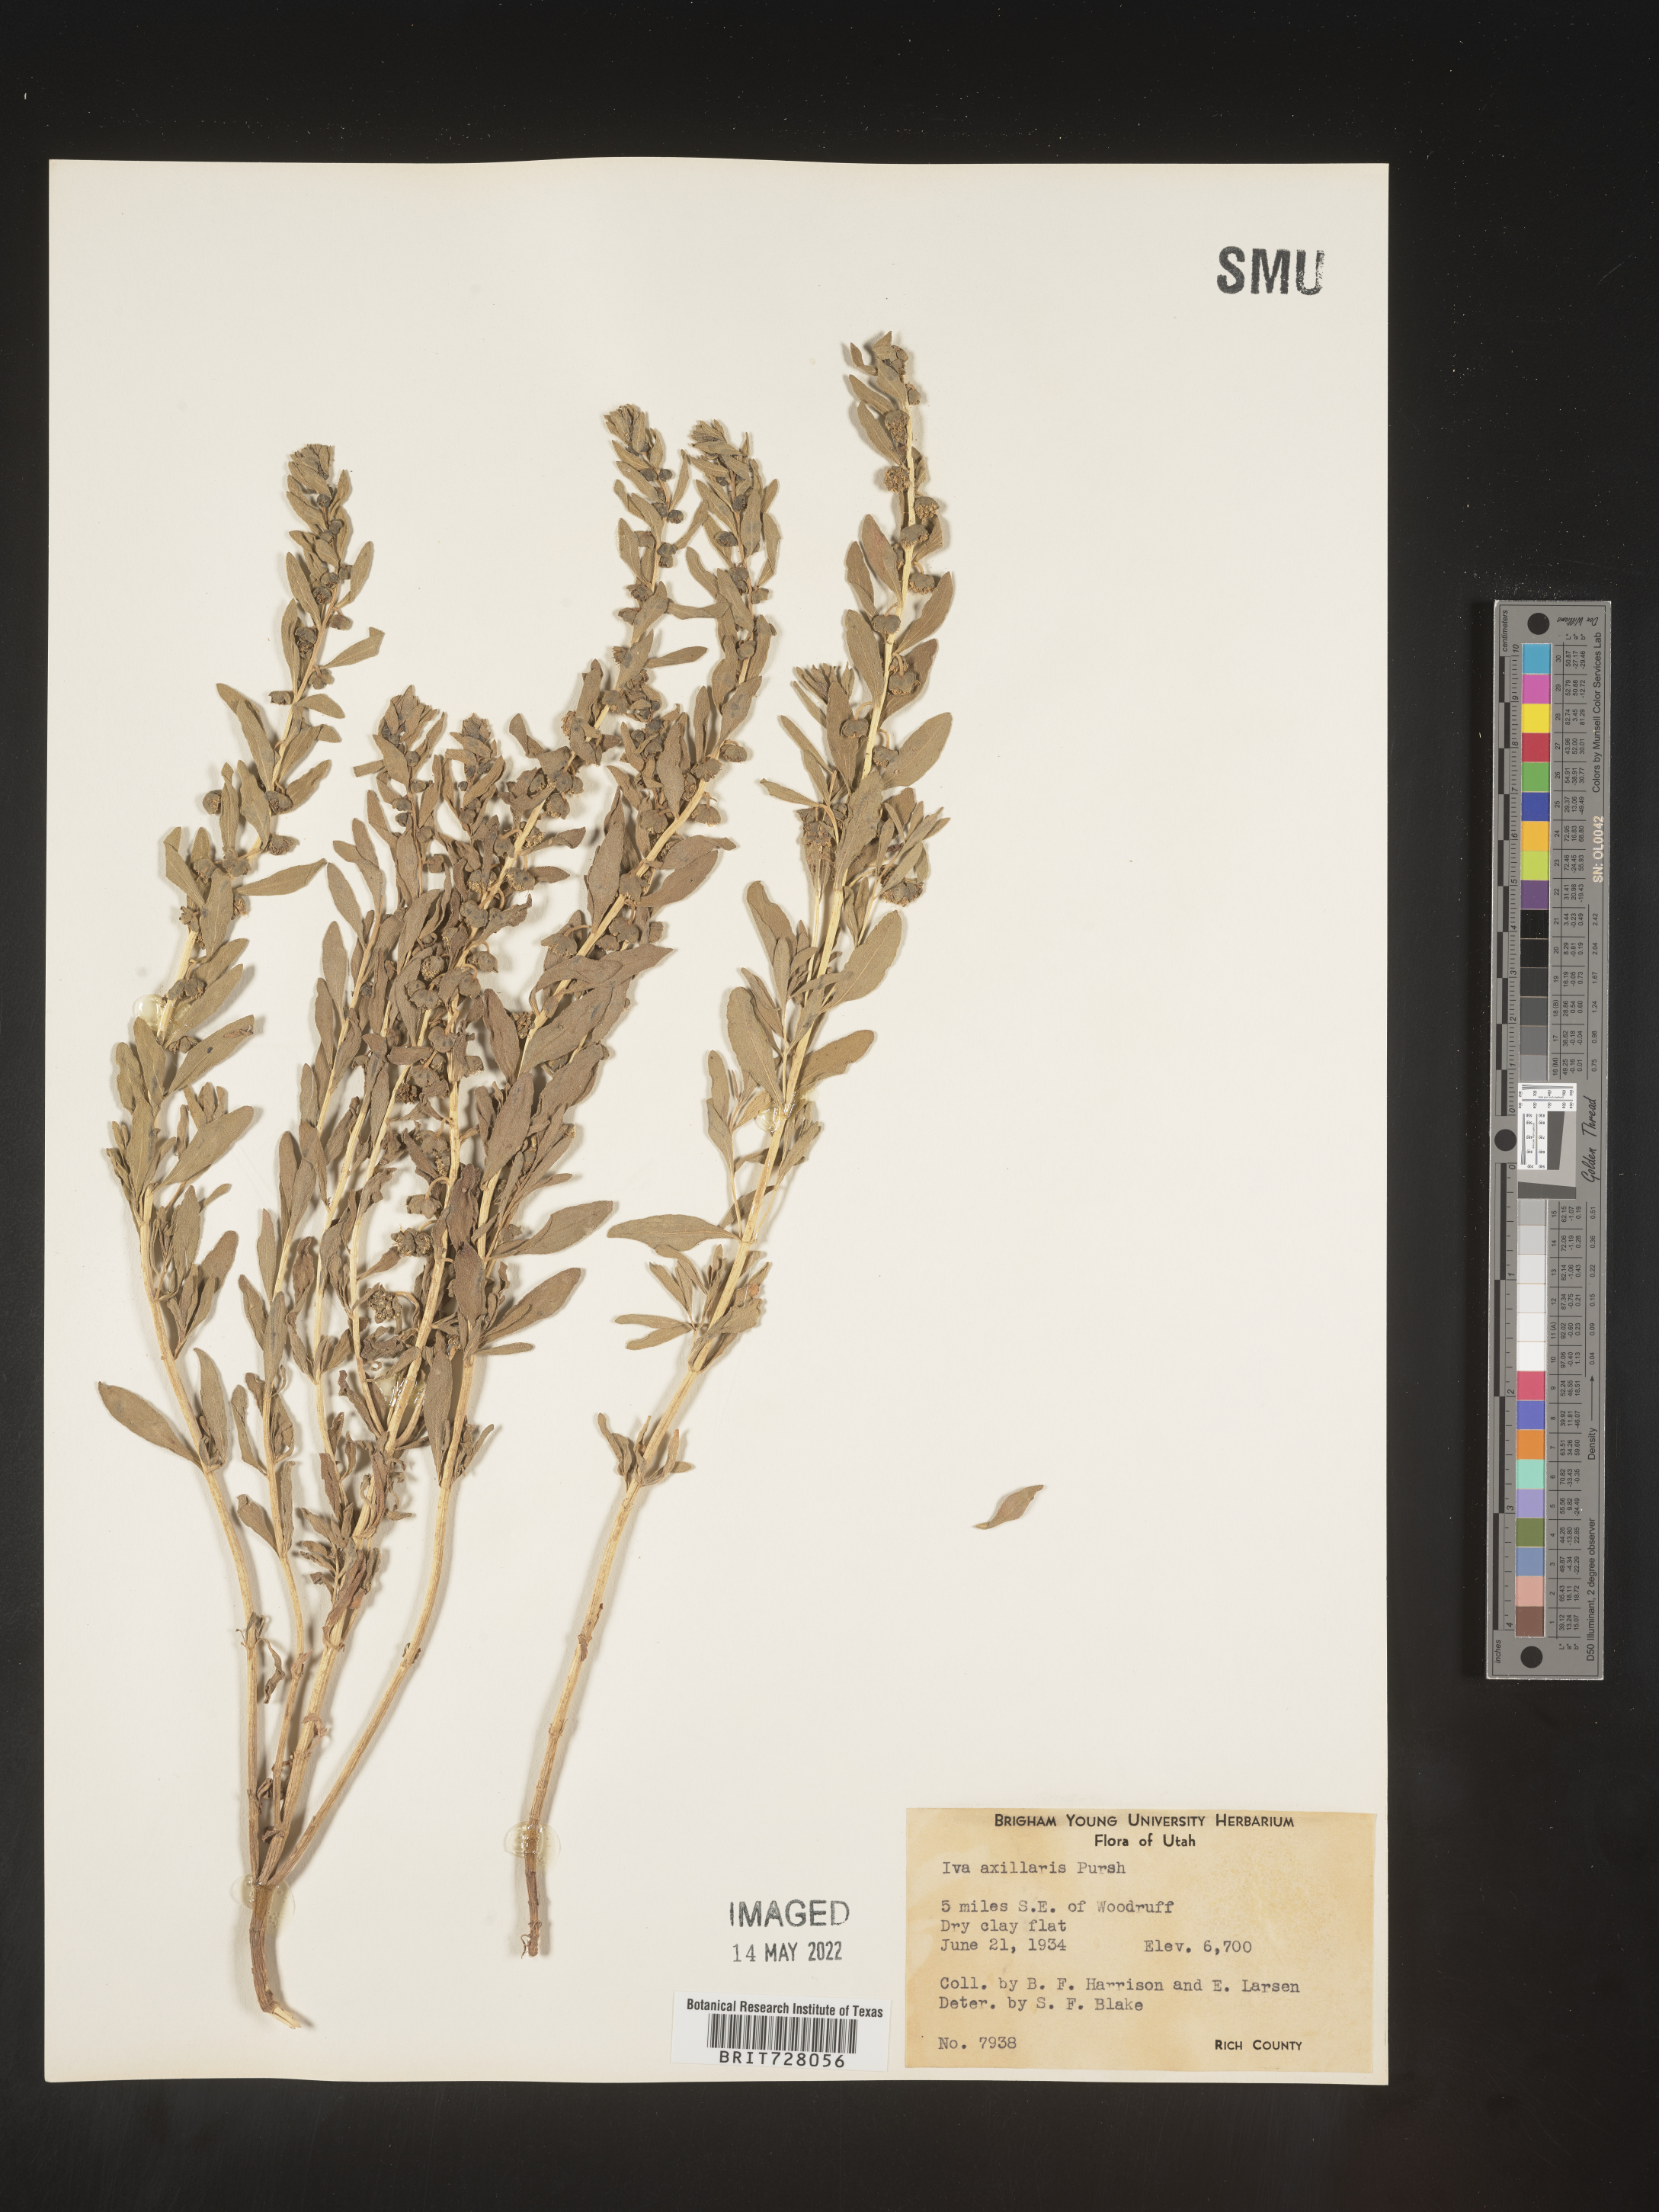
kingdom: Plantae
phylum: Tracheophyta
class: Magnoliopsida
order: Asterales
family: Asteraceae
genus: Iva
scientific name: Iva axillaris
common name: Poverty sumpweed
